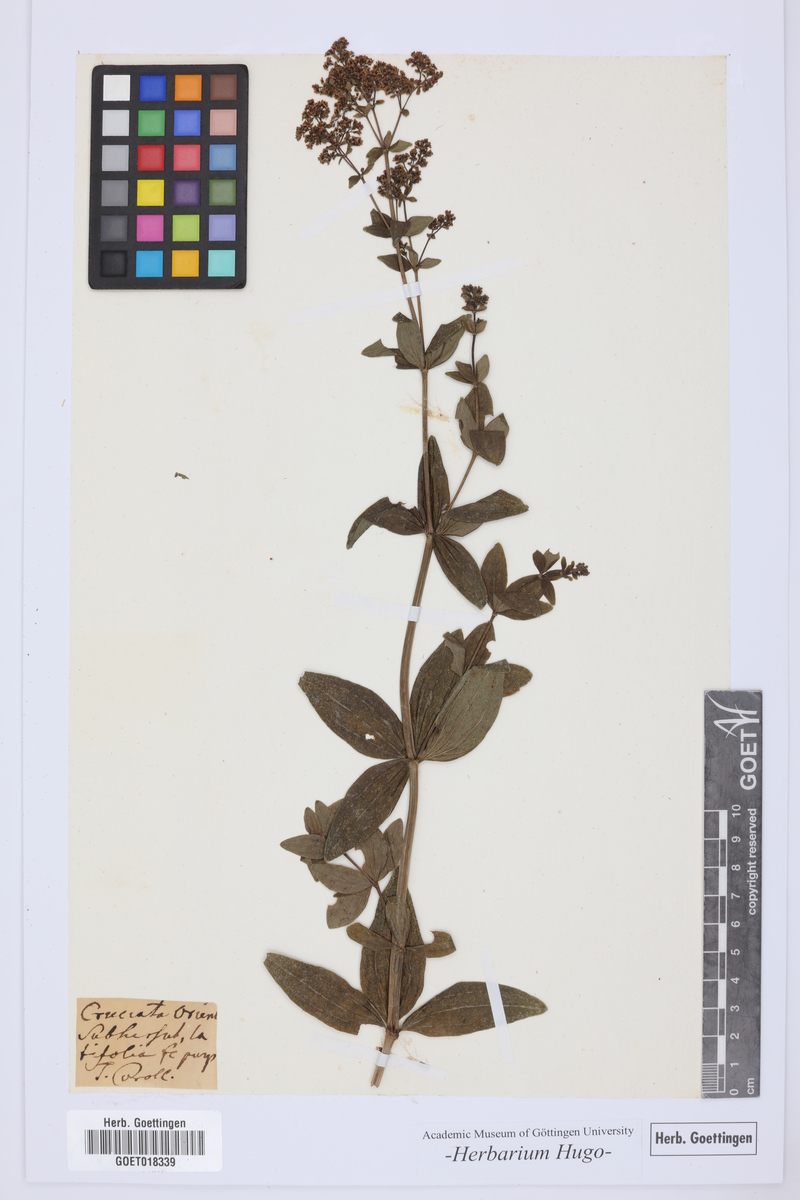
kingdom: Plantae
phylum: Tracheophyta
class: Magnoliopsida
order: Gentianales
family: Rubiaceae
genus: Cruciata
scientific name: Cruciata
